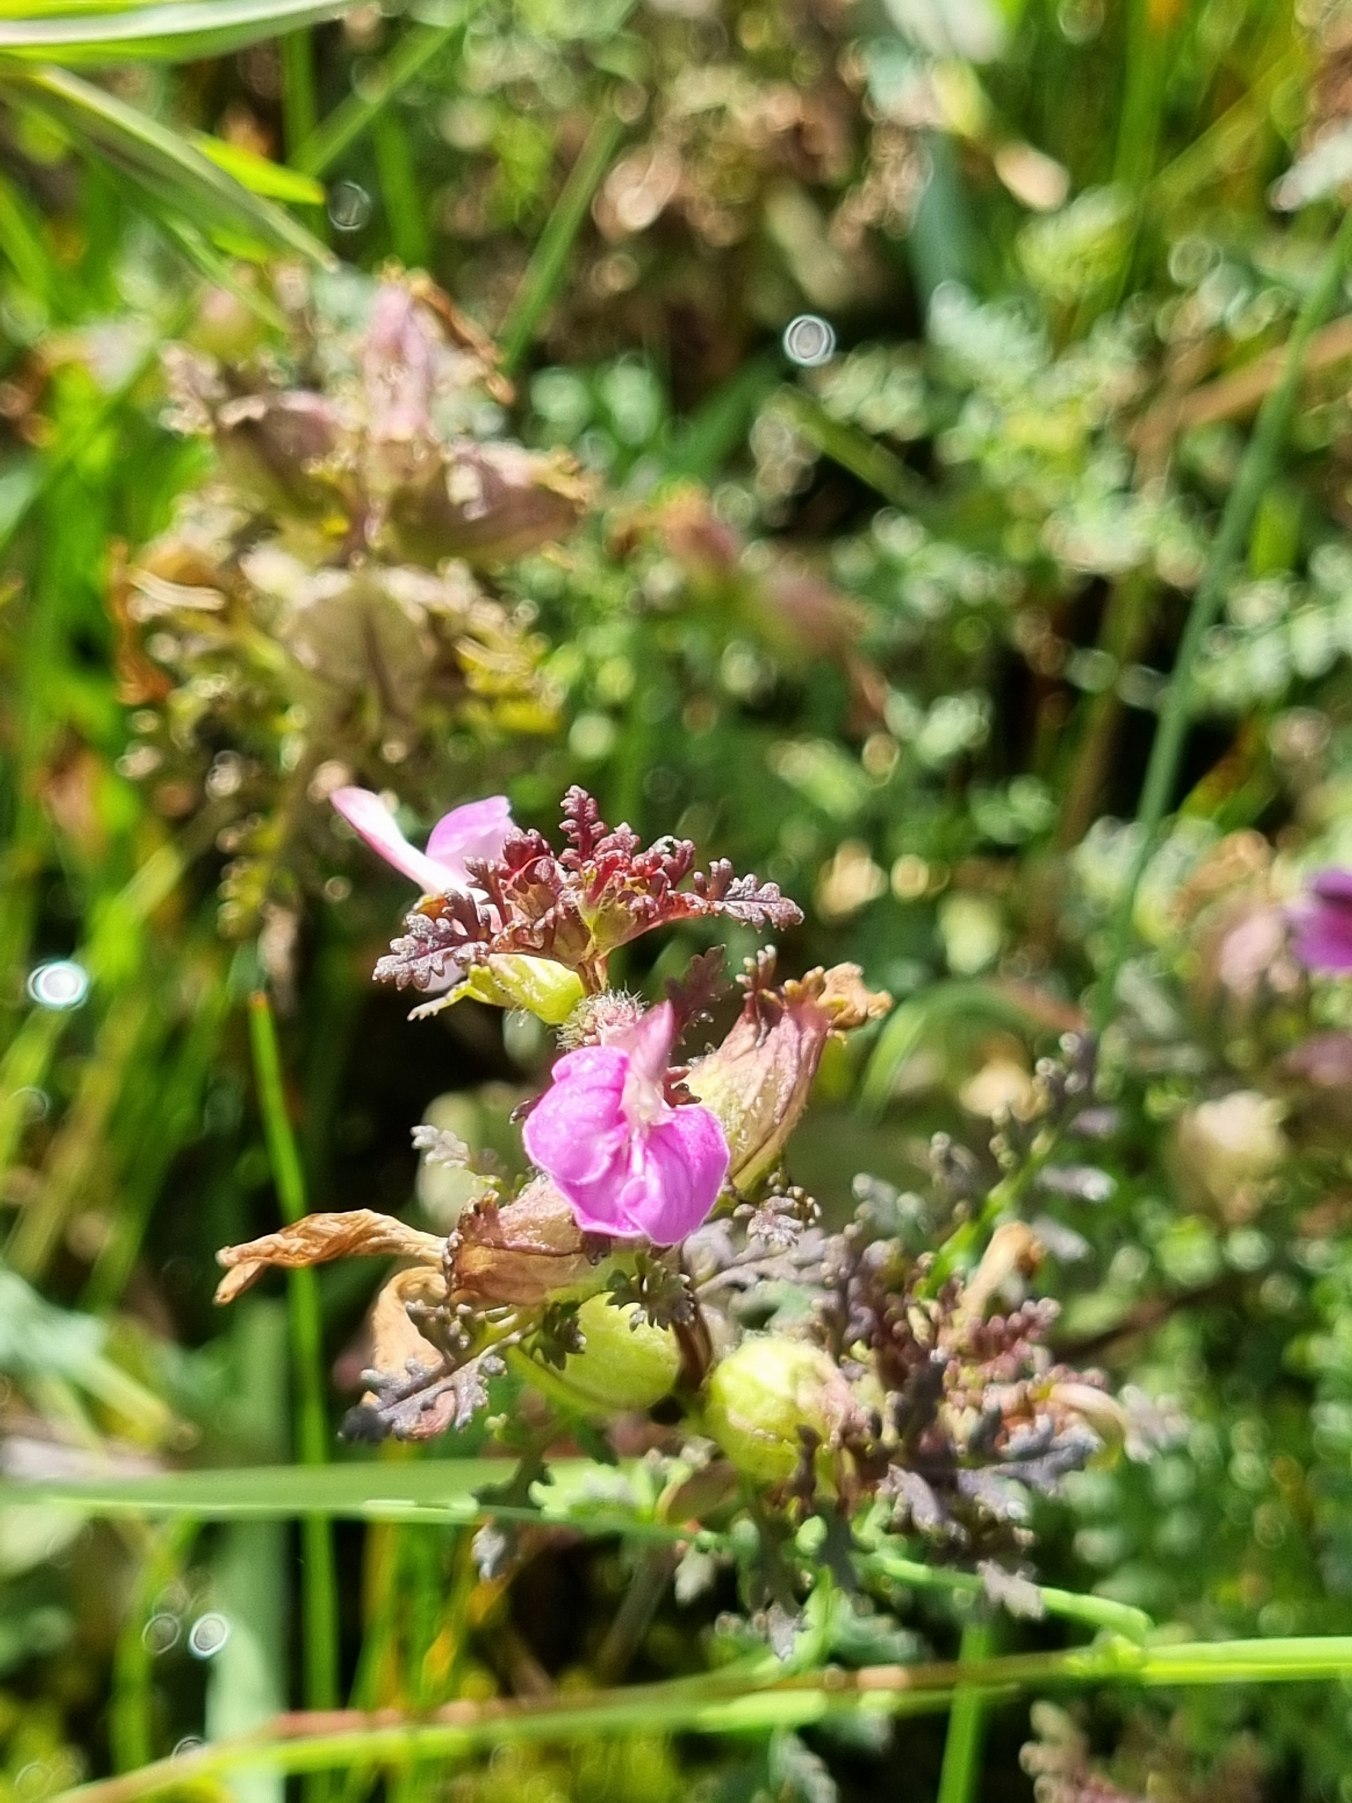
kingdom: Plantae
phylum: Tracheophyta
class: Magnoliopsida
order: Lamiales
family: Orobanchaceae
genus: Pedicularis
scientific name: Pedicularis palustris
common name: Eng-troldurt
